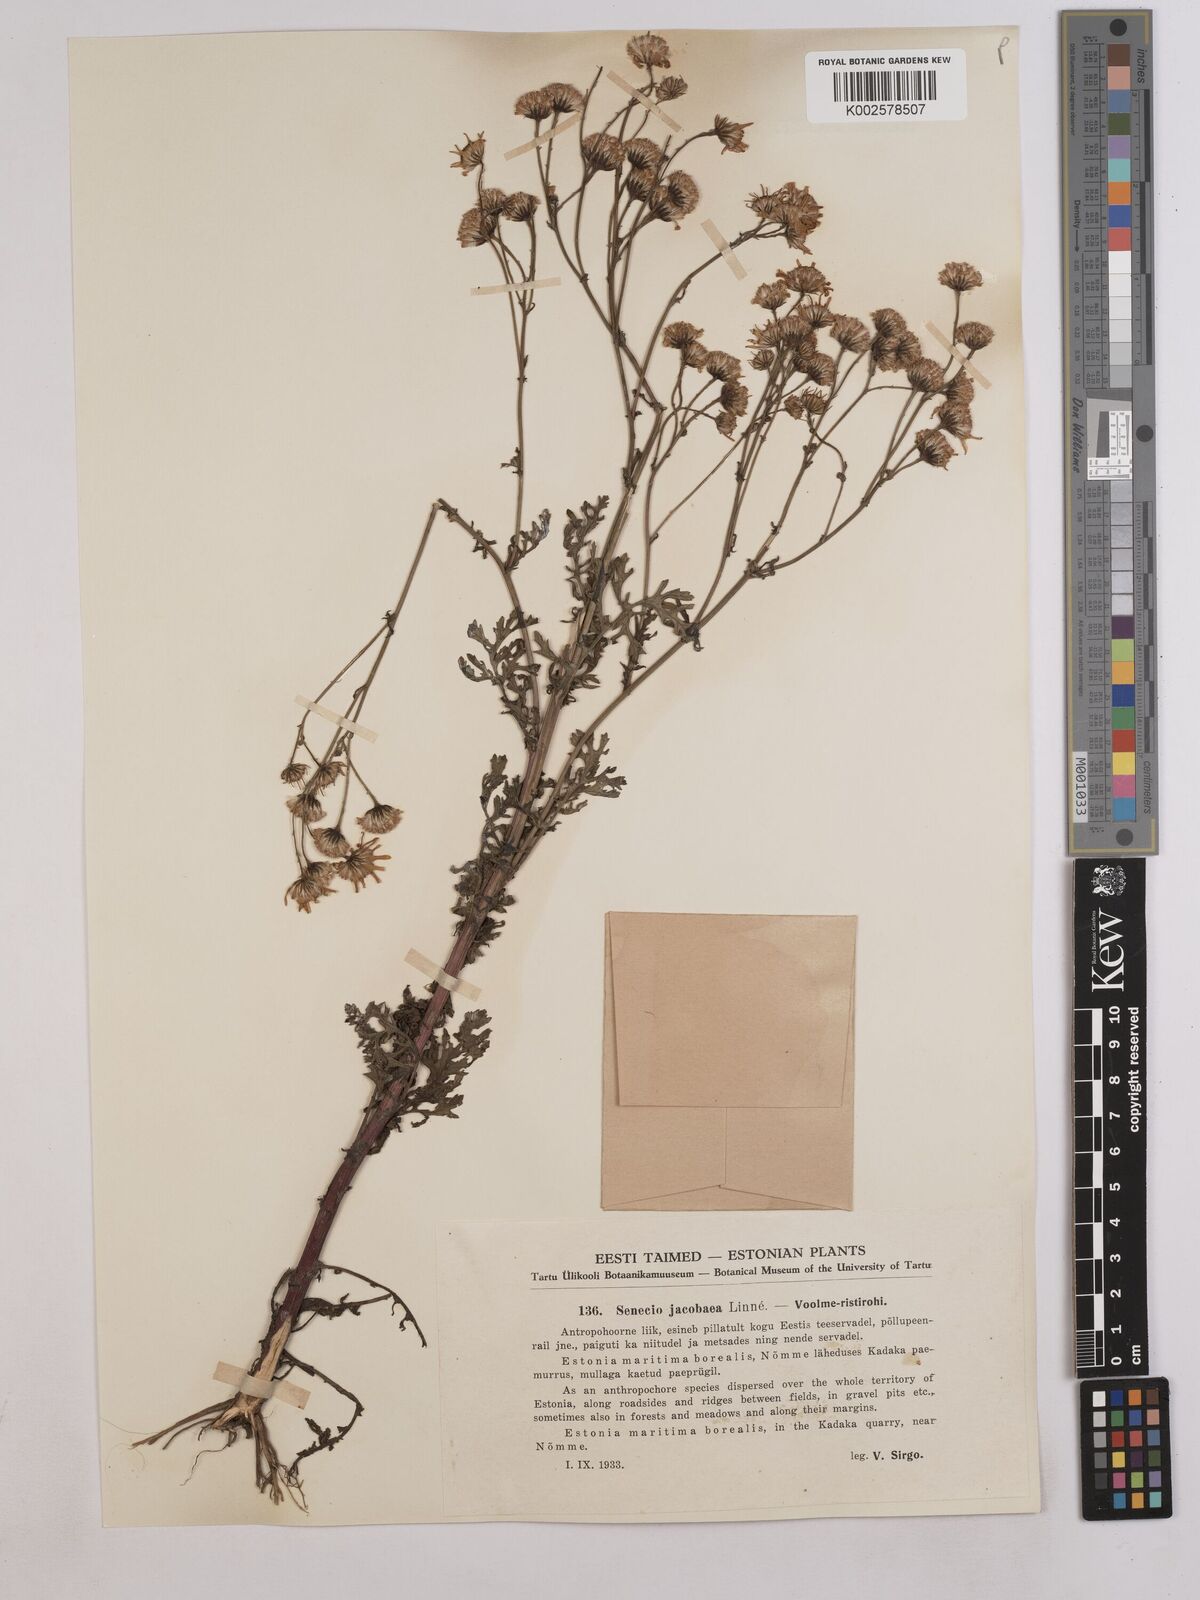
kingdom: Plantae
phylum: Tracheophyta
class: Magnoliopsida
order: Asterales
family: Asteraceae
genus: Jacobaea
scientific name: Jacobaea vulgaris
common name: Stinking willie
